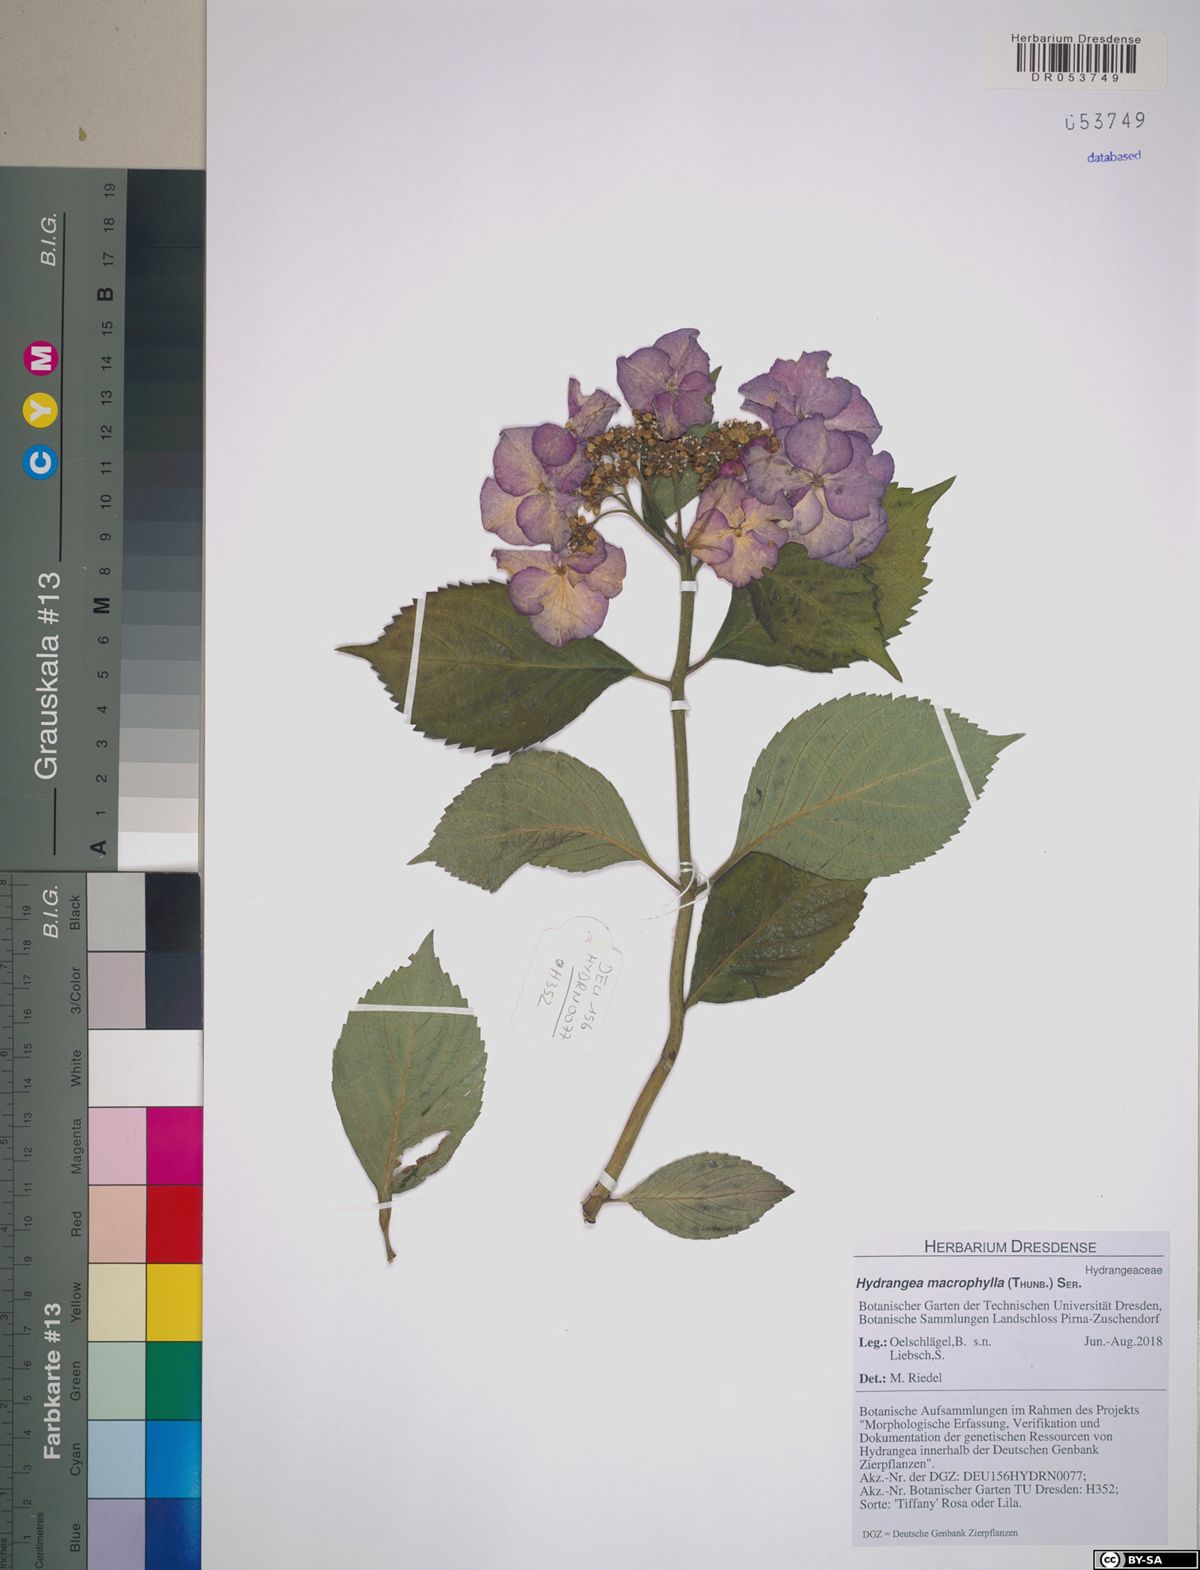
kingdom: Plantae
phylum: Tracheophyta
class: Magnoliopsida
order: Cornales
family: Hydrangeaceae
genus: Hydrangea
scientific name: Hydrangea macrophylla
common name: Hydrangea
